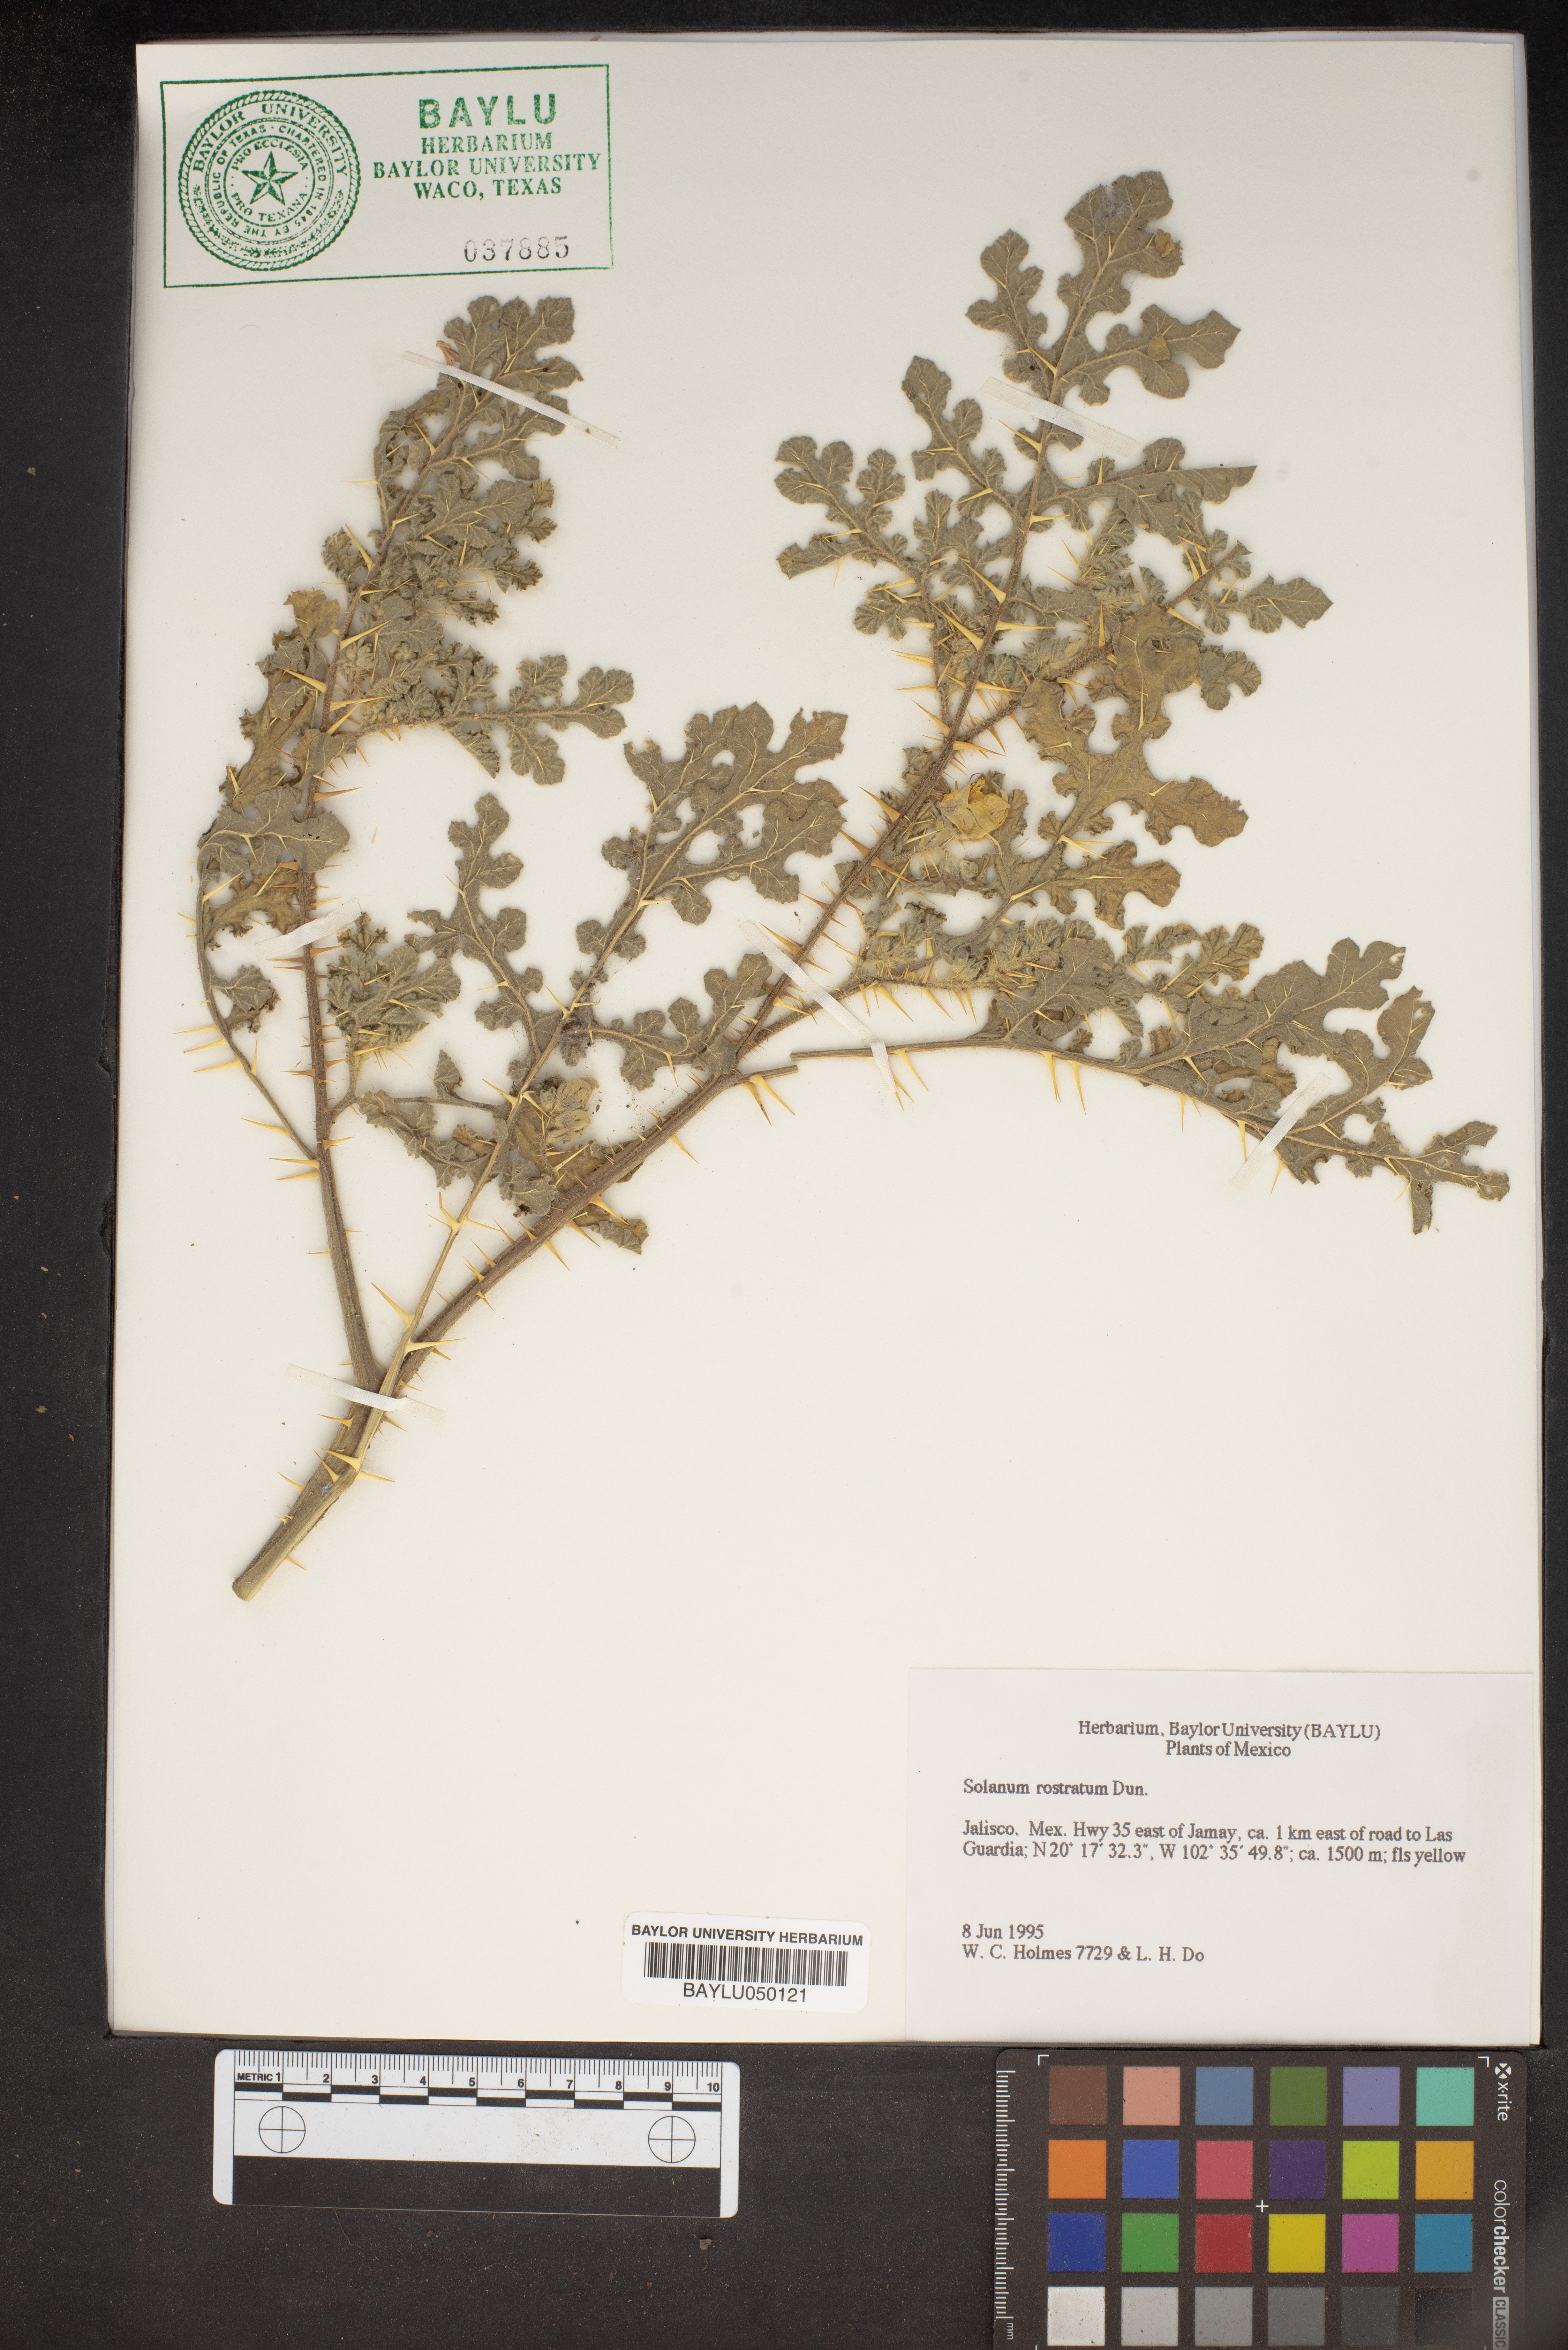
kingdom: Plantae
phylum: Tracheophyta
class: Magnoliopsida
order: Solanales
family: Solanaceae
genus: Solanum
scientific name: Solanum angustifolium
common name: Buffalobur nightshade
